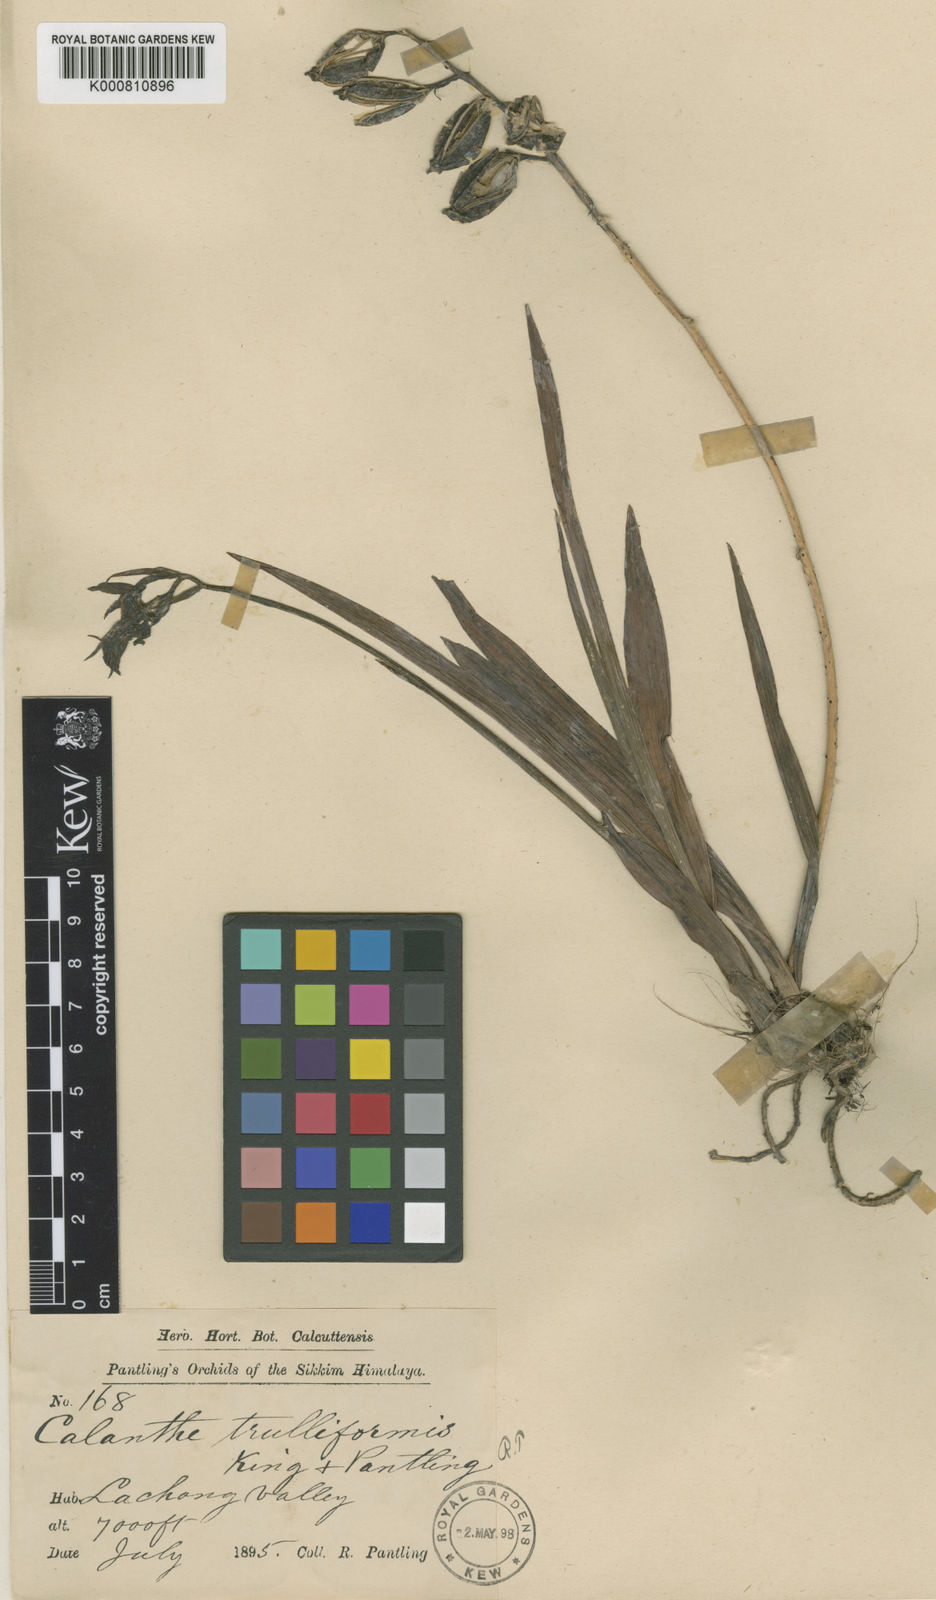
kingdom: Plantae
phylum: Tracheophyta
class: Liliopsida
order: Asparagales
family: Orchidaceae
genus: Calanthe
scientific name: Calanthe trulliformis
